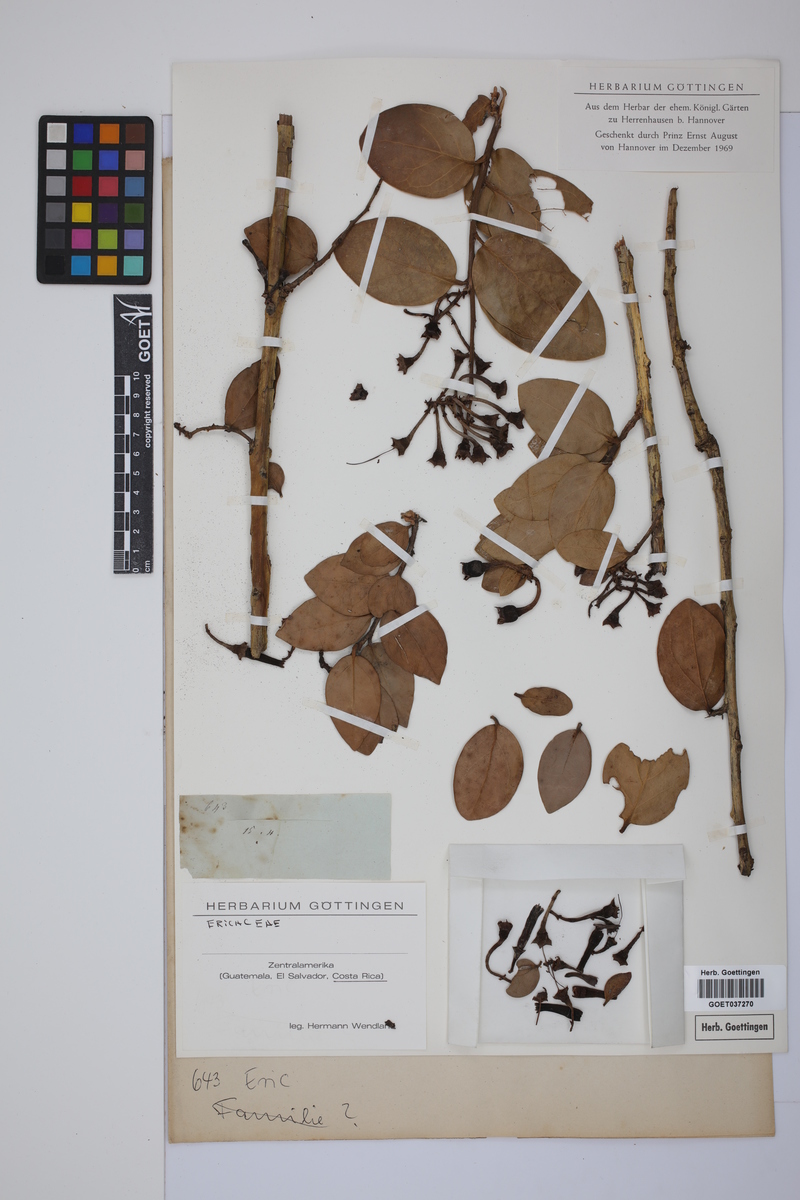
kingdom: Plantae
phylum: Tracheophyta
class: Magnoliopsida
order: Ericales
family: Ericaceae
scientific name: Ericaceae
